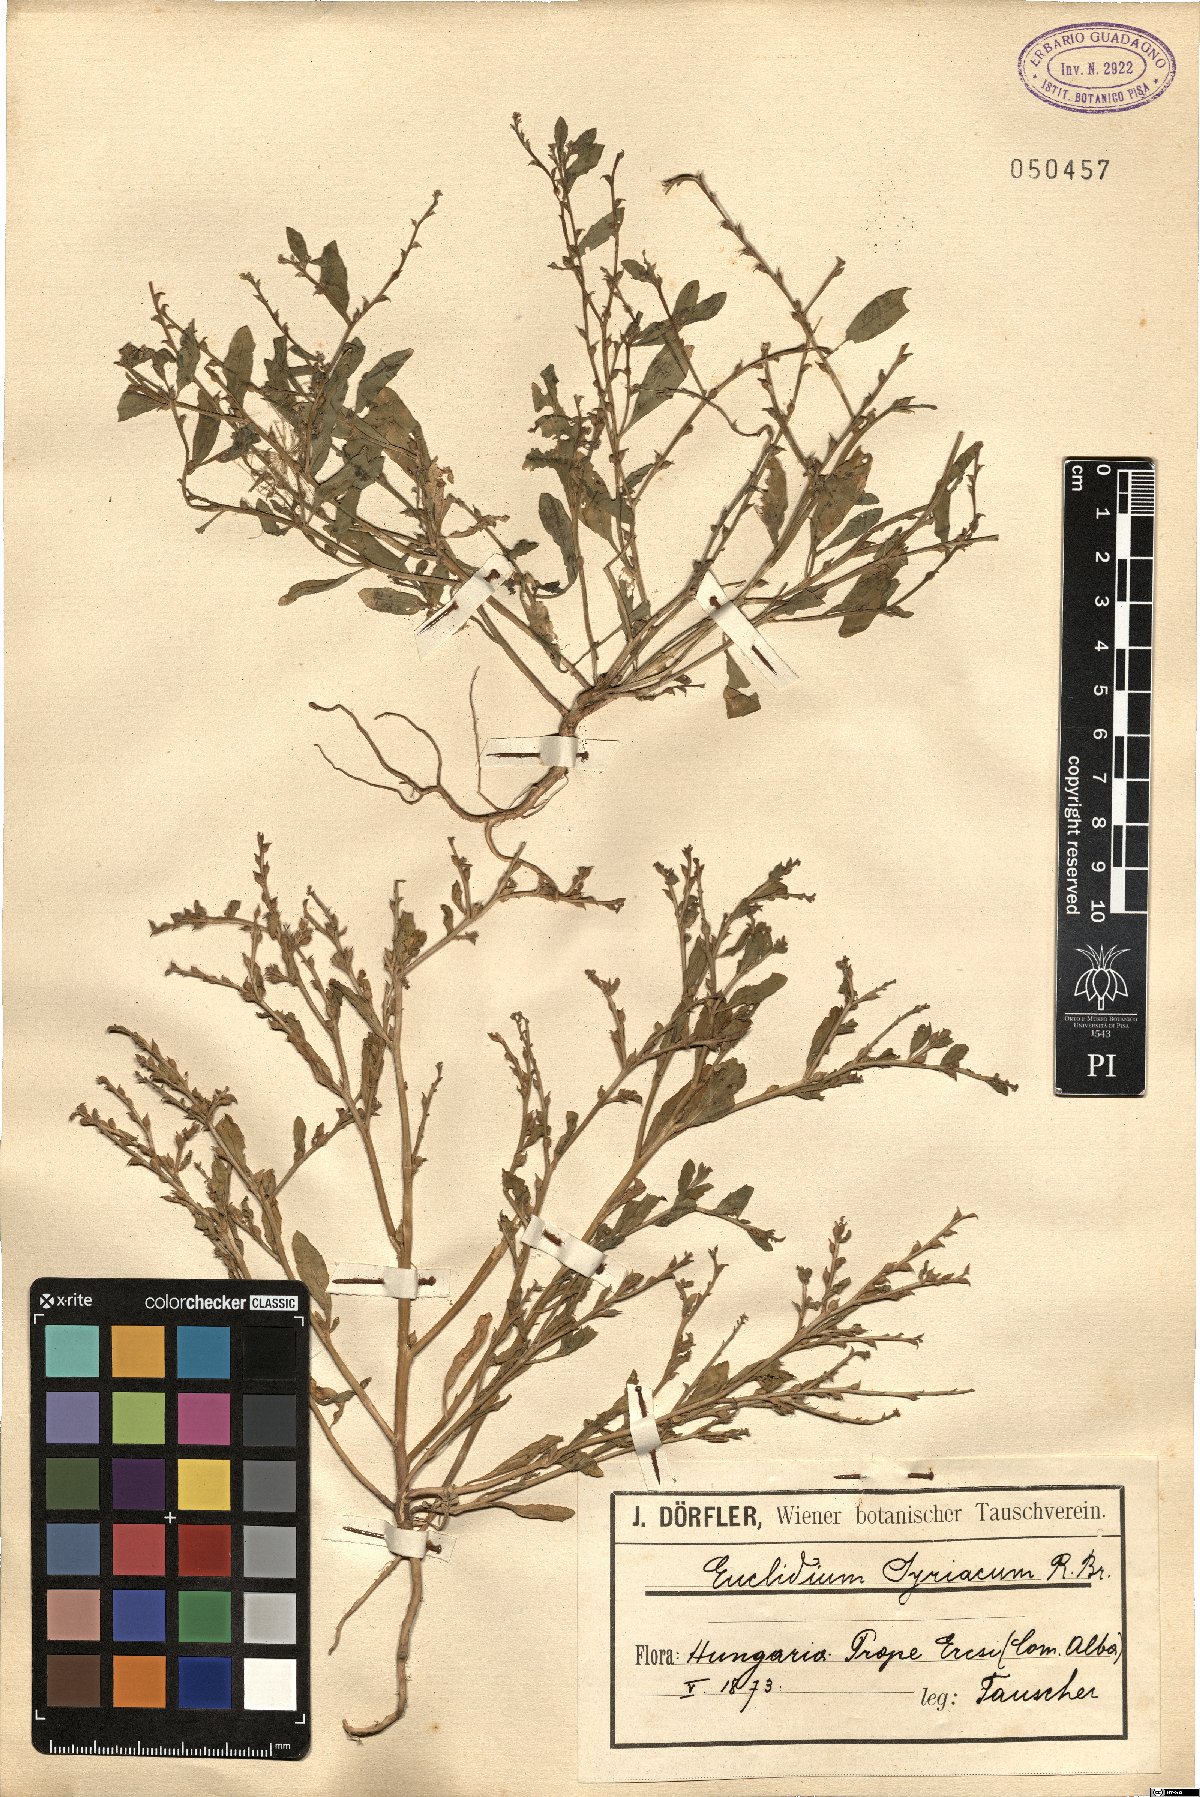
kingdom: Plantae
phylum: Tracheophyta
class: Magnoliopsida
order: Brassicales
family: Brassicaceae
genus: Euclidium
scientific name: Euclidium syriacum
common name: Syrian mustard
